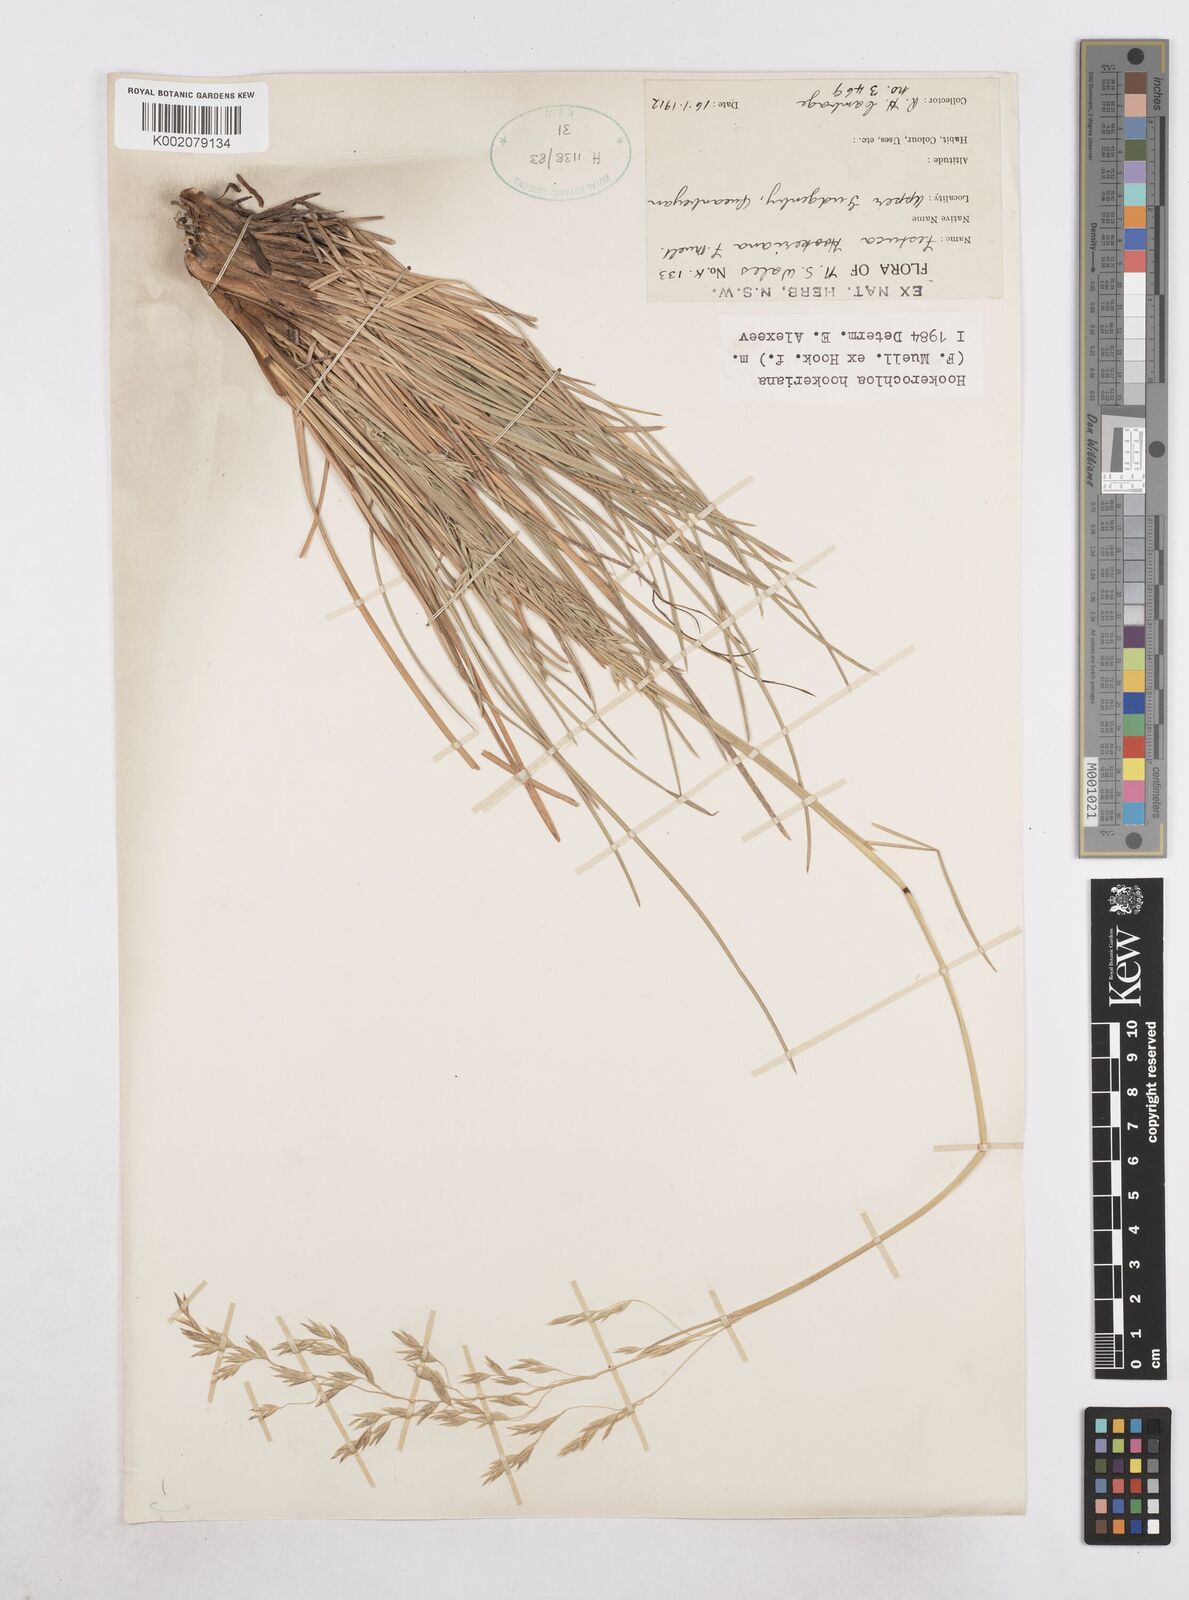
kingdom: Plantae
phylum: Tracheophyta
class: Liliopsida
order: Poales
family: Poaceae
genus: Hookerochloa
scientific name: Hookerochloa hookeriana
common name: Hooker's-fescue
